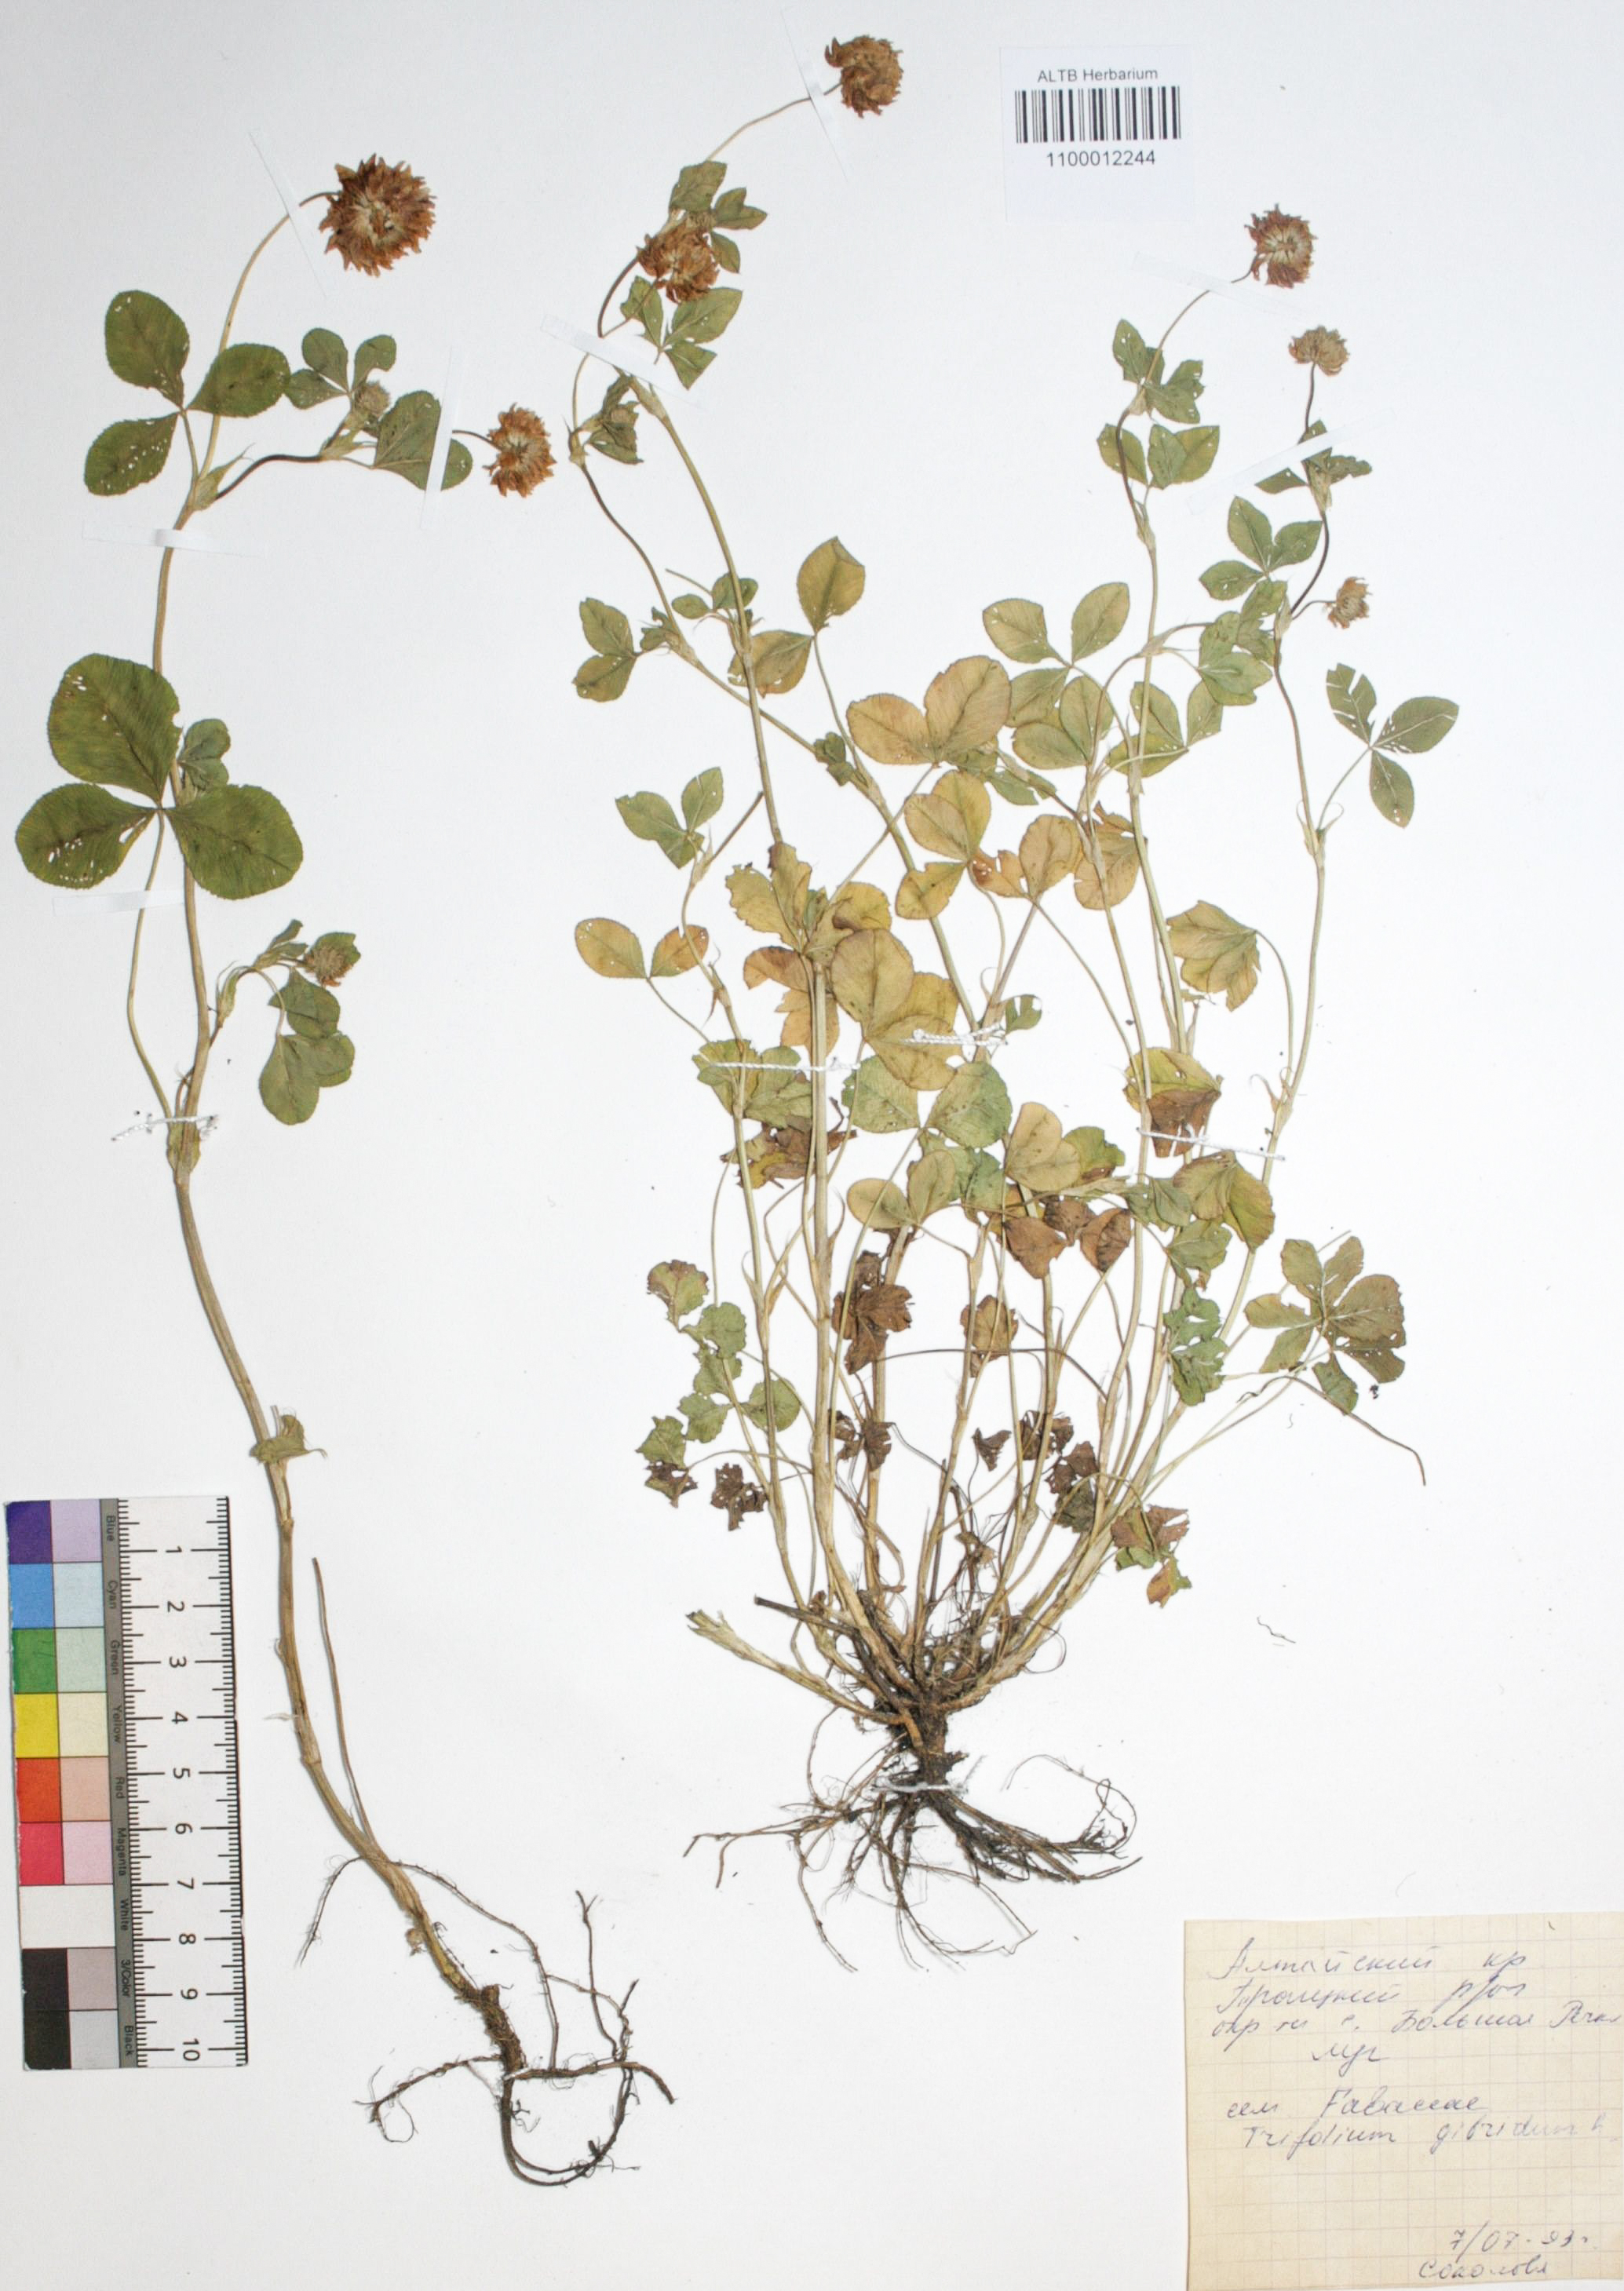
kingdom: Plantae
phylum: Tracheophyta
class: Magnoliopsida
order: Fabales
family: Fabaceae
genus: Trifolium
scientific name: Trifolium hybridum
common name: Alsike clover
